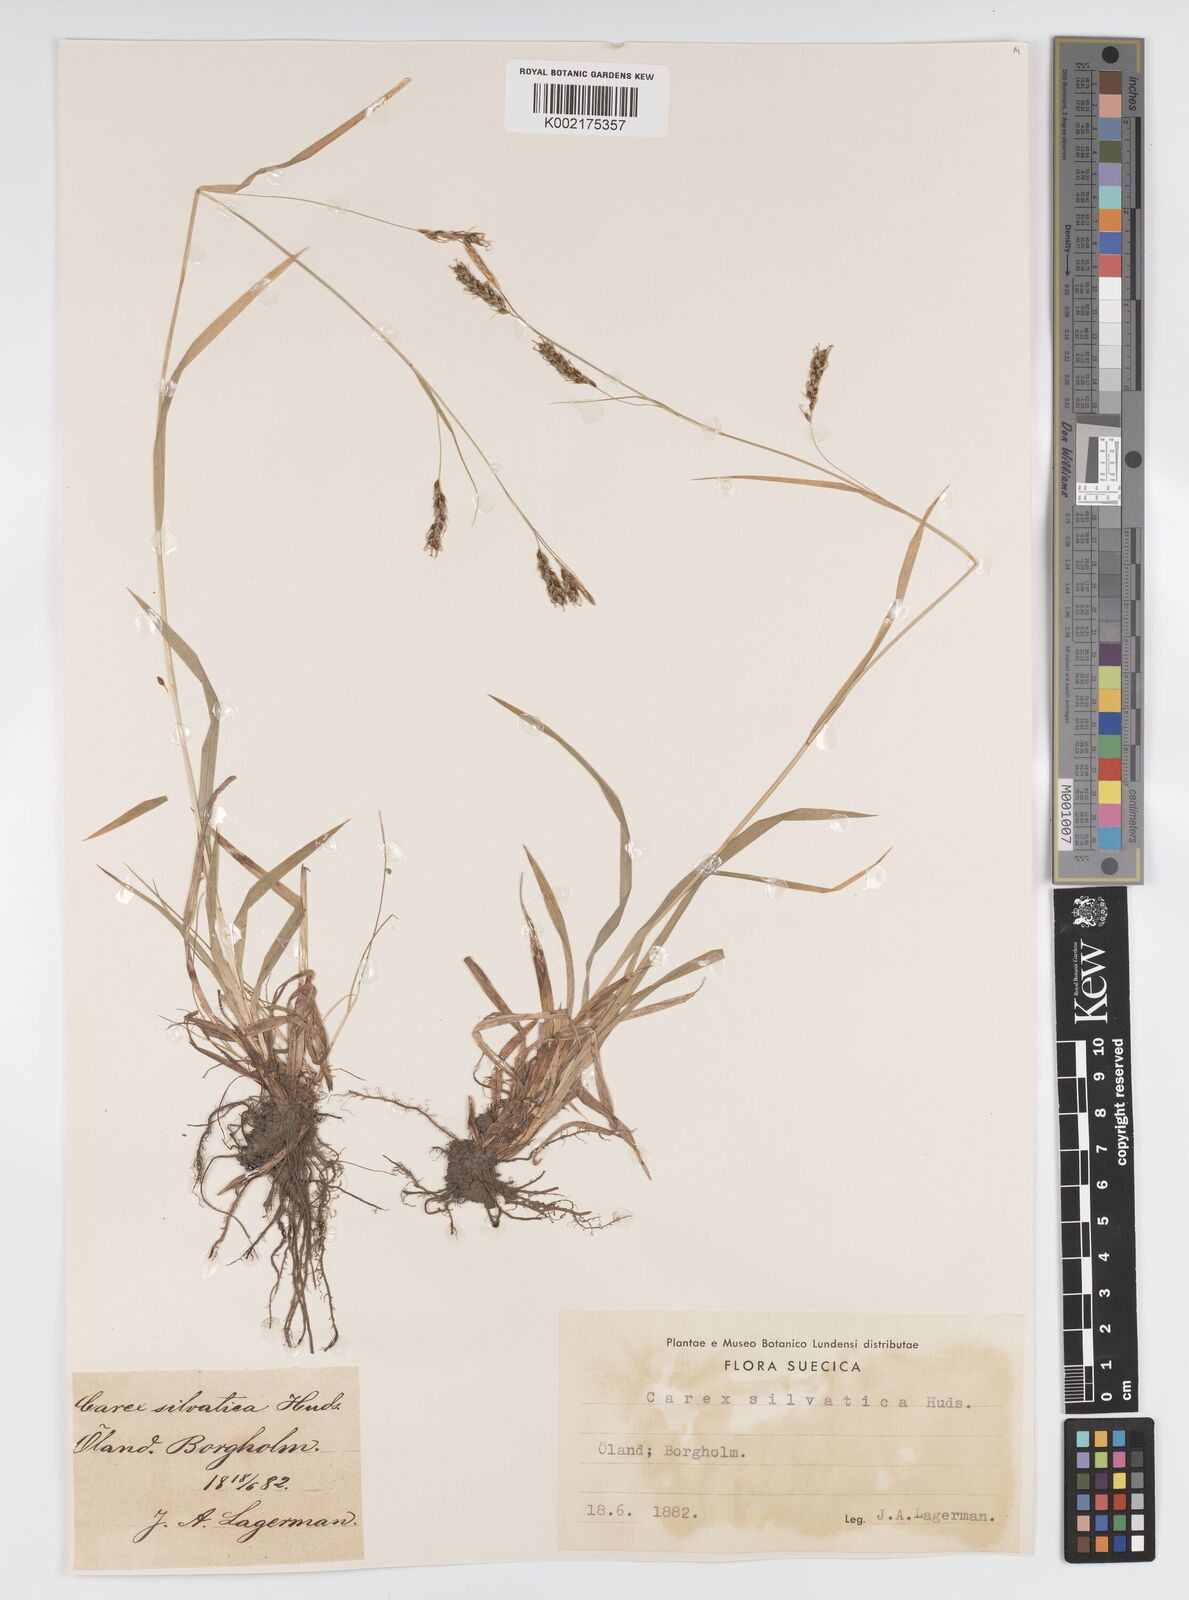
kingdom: Plantae
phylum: Tracheophyta
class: Liliopsida
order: Poales
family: Cyperaceae
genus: Carex
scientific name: Carex sylvatica
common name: Wood-sedge
